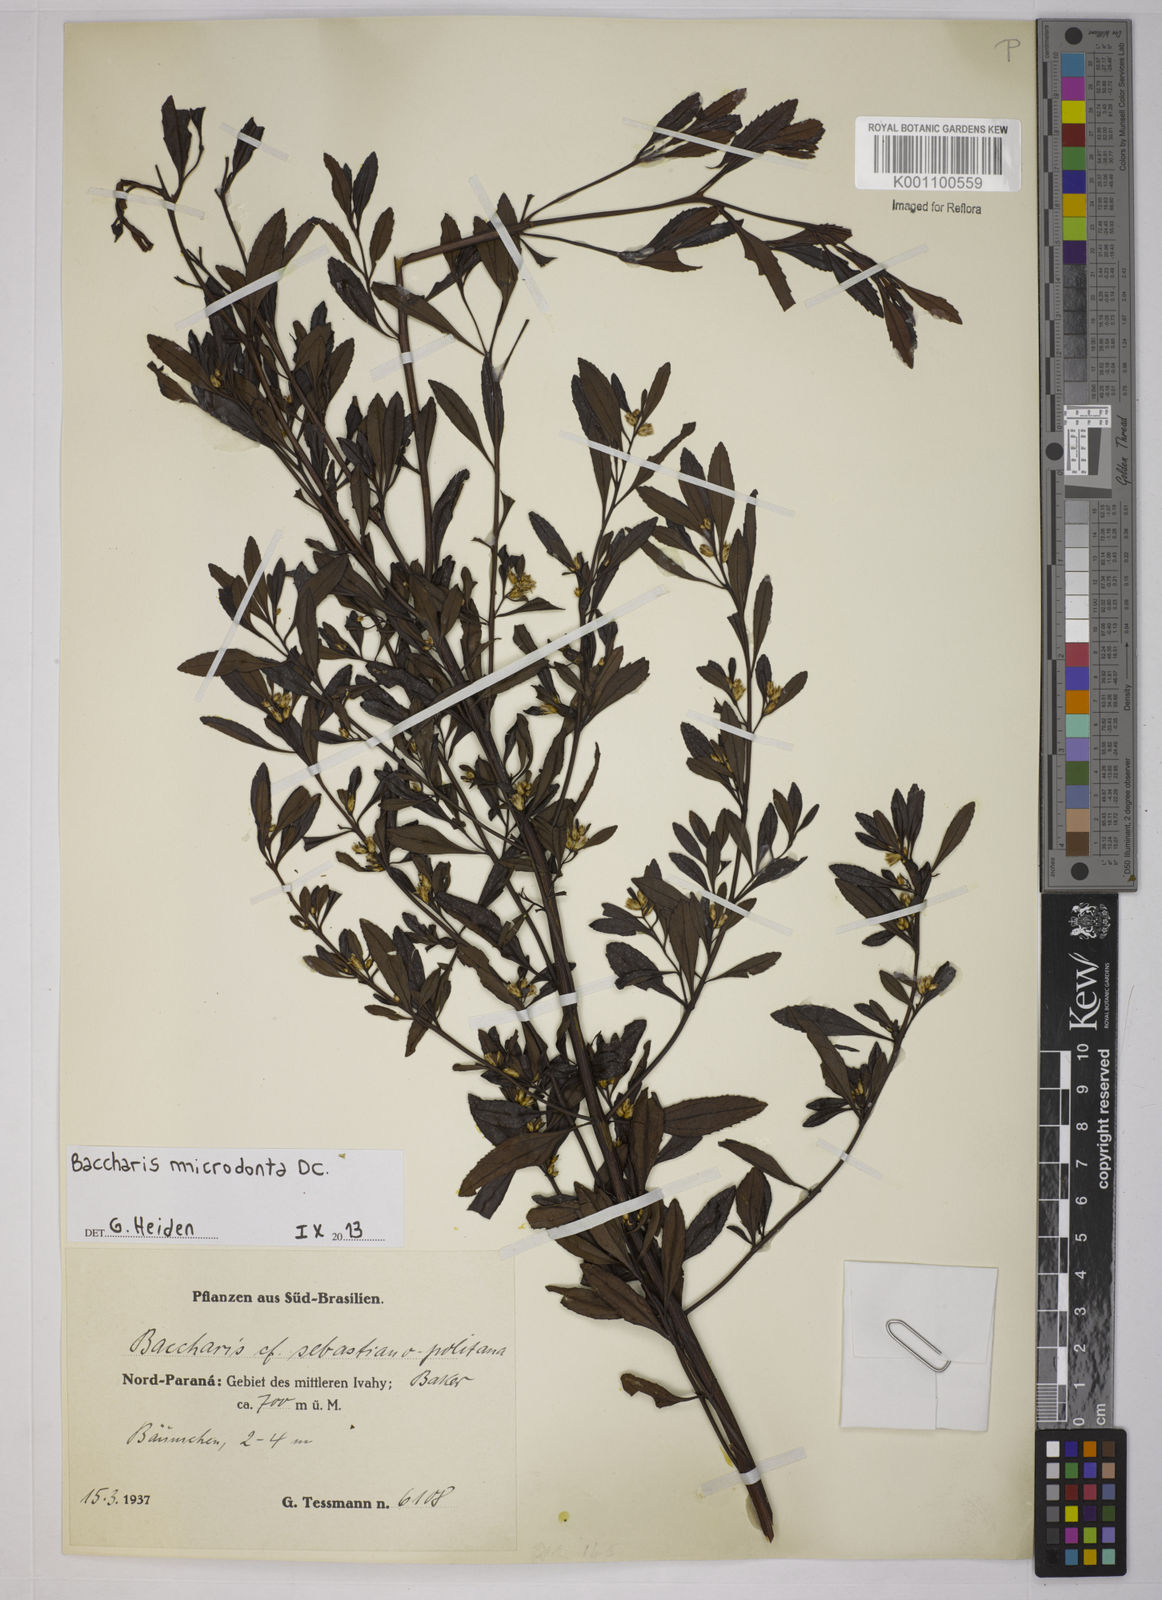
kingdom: Plantae
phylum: Tracheophyta
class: Magnoliopsida
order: Asterales
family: Asteraceae
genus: Baccharis
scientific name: Baccharis microdonta
